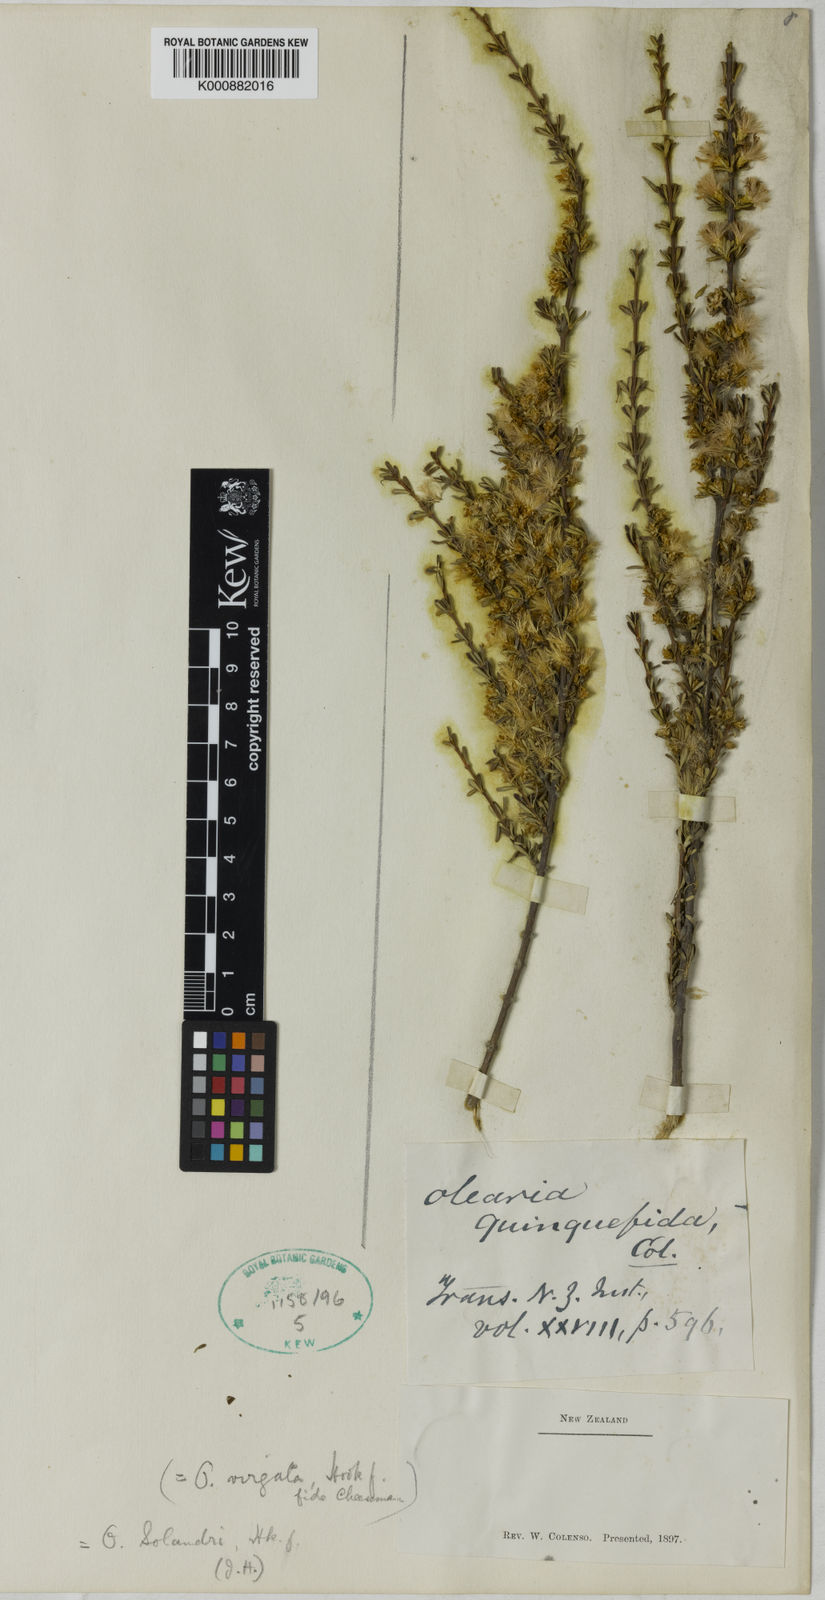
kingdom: Plantae
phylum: Tracheophyta
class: Magnoliopsida
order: Asterales
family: Asteraceae
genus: Olearia
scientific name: Olearia virgata
